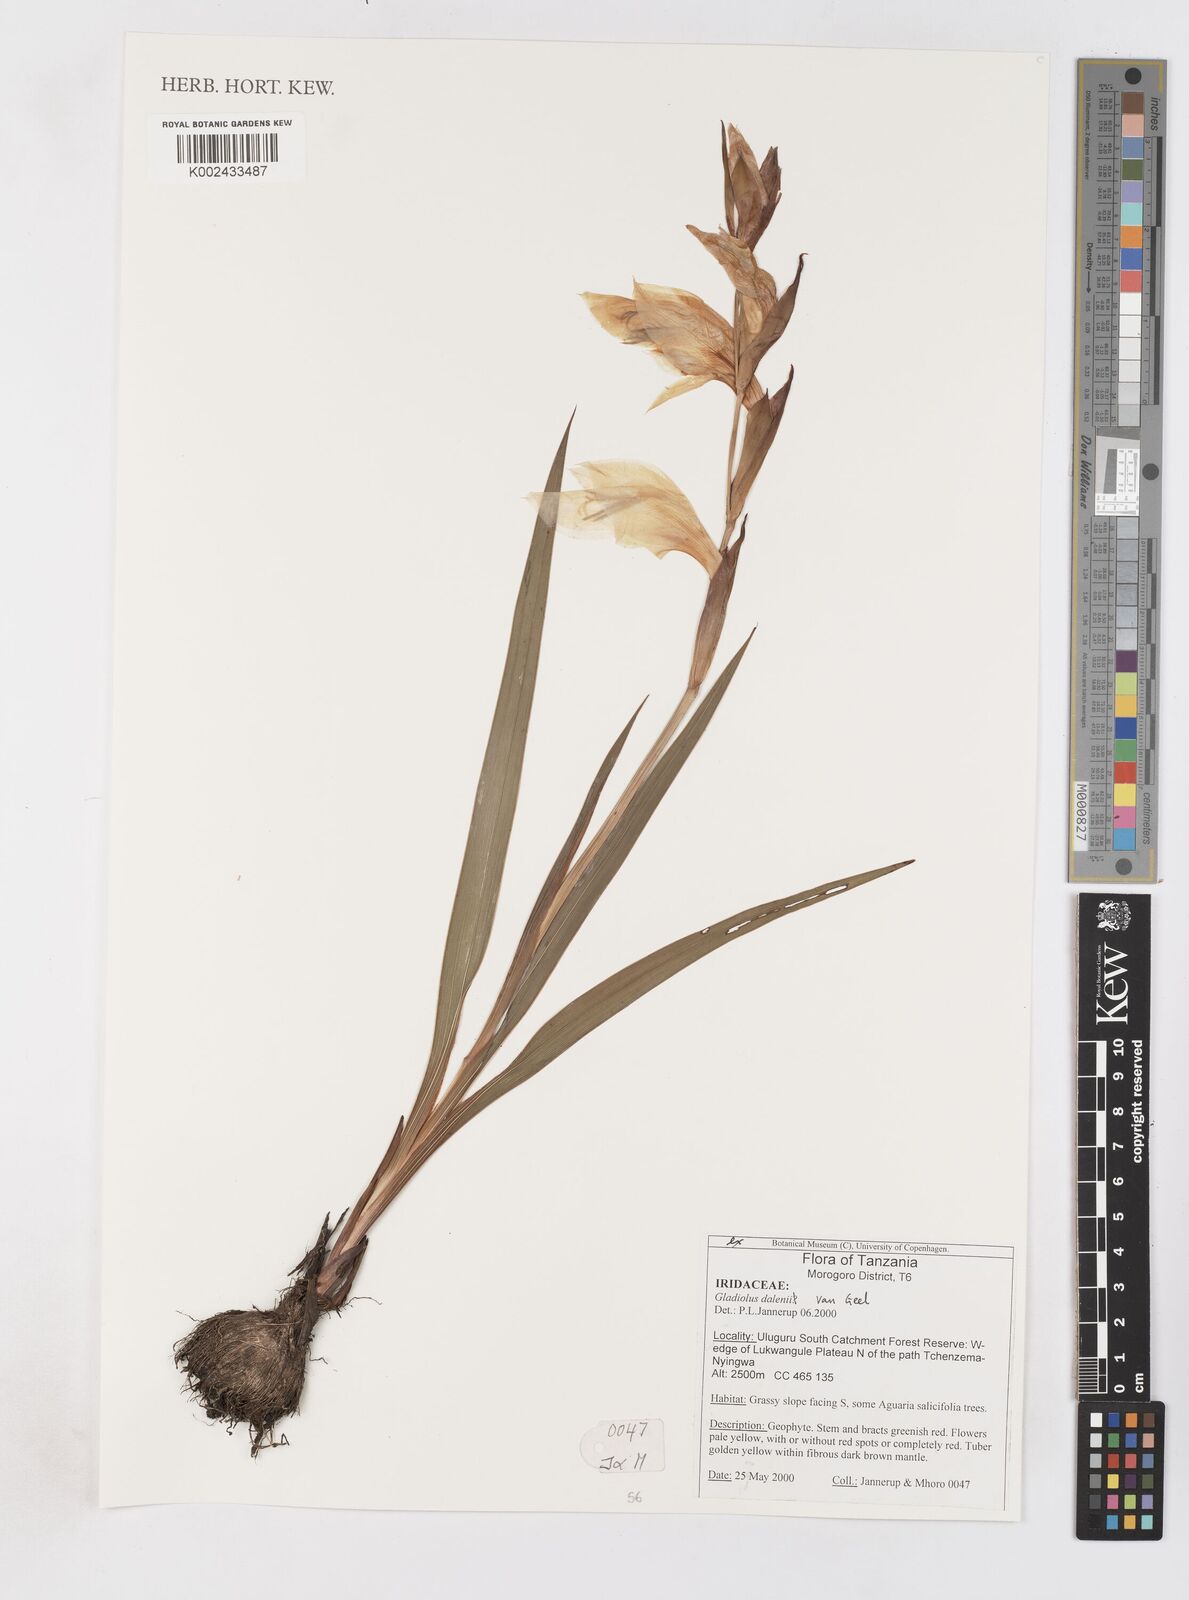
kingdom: Plantae
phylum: Tracheophyta
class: Liliopsida
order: Asparagales
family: Iridaceae
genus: Gladiolus
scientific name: Gladiolus dalenii
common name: Cornflag
